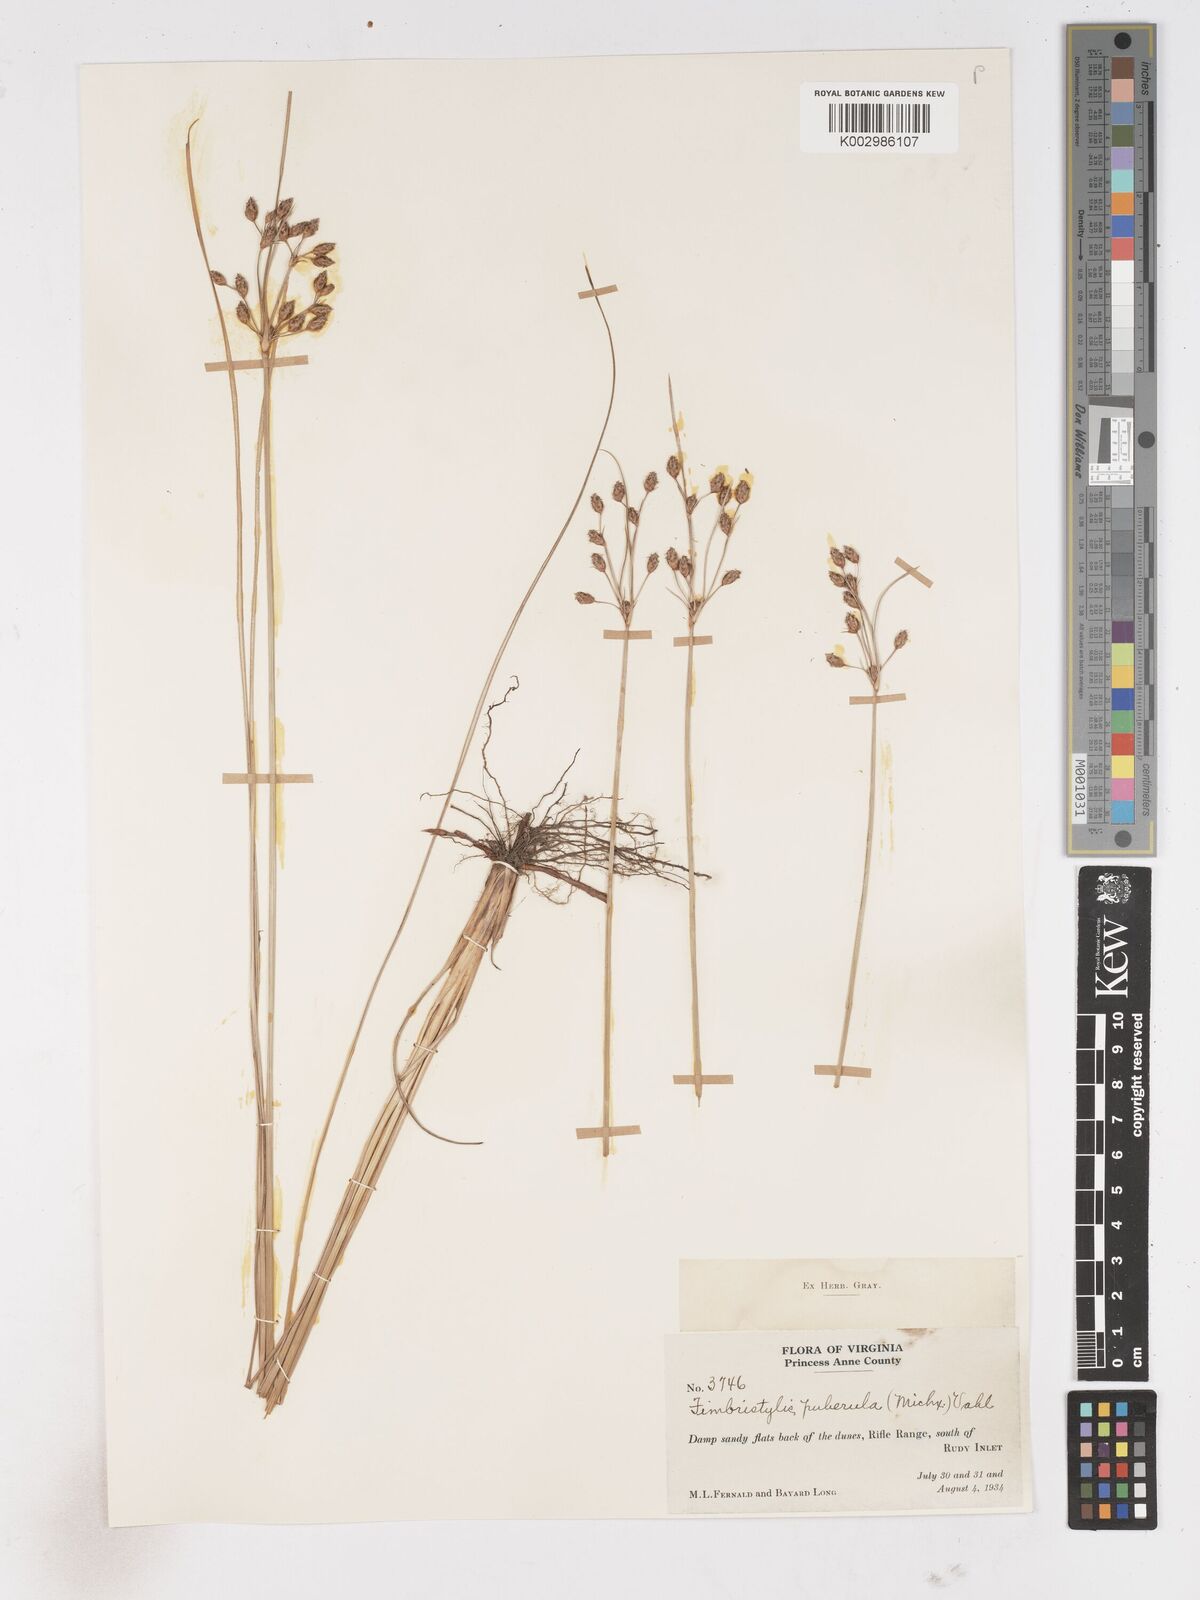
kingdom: Plantae
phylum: Tracheophyta
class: Liliopsida
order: Poales
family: Cyperaceae
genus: Fimbristylis
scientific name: Fimbristylis puberula
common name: Hairy fimbristylis
